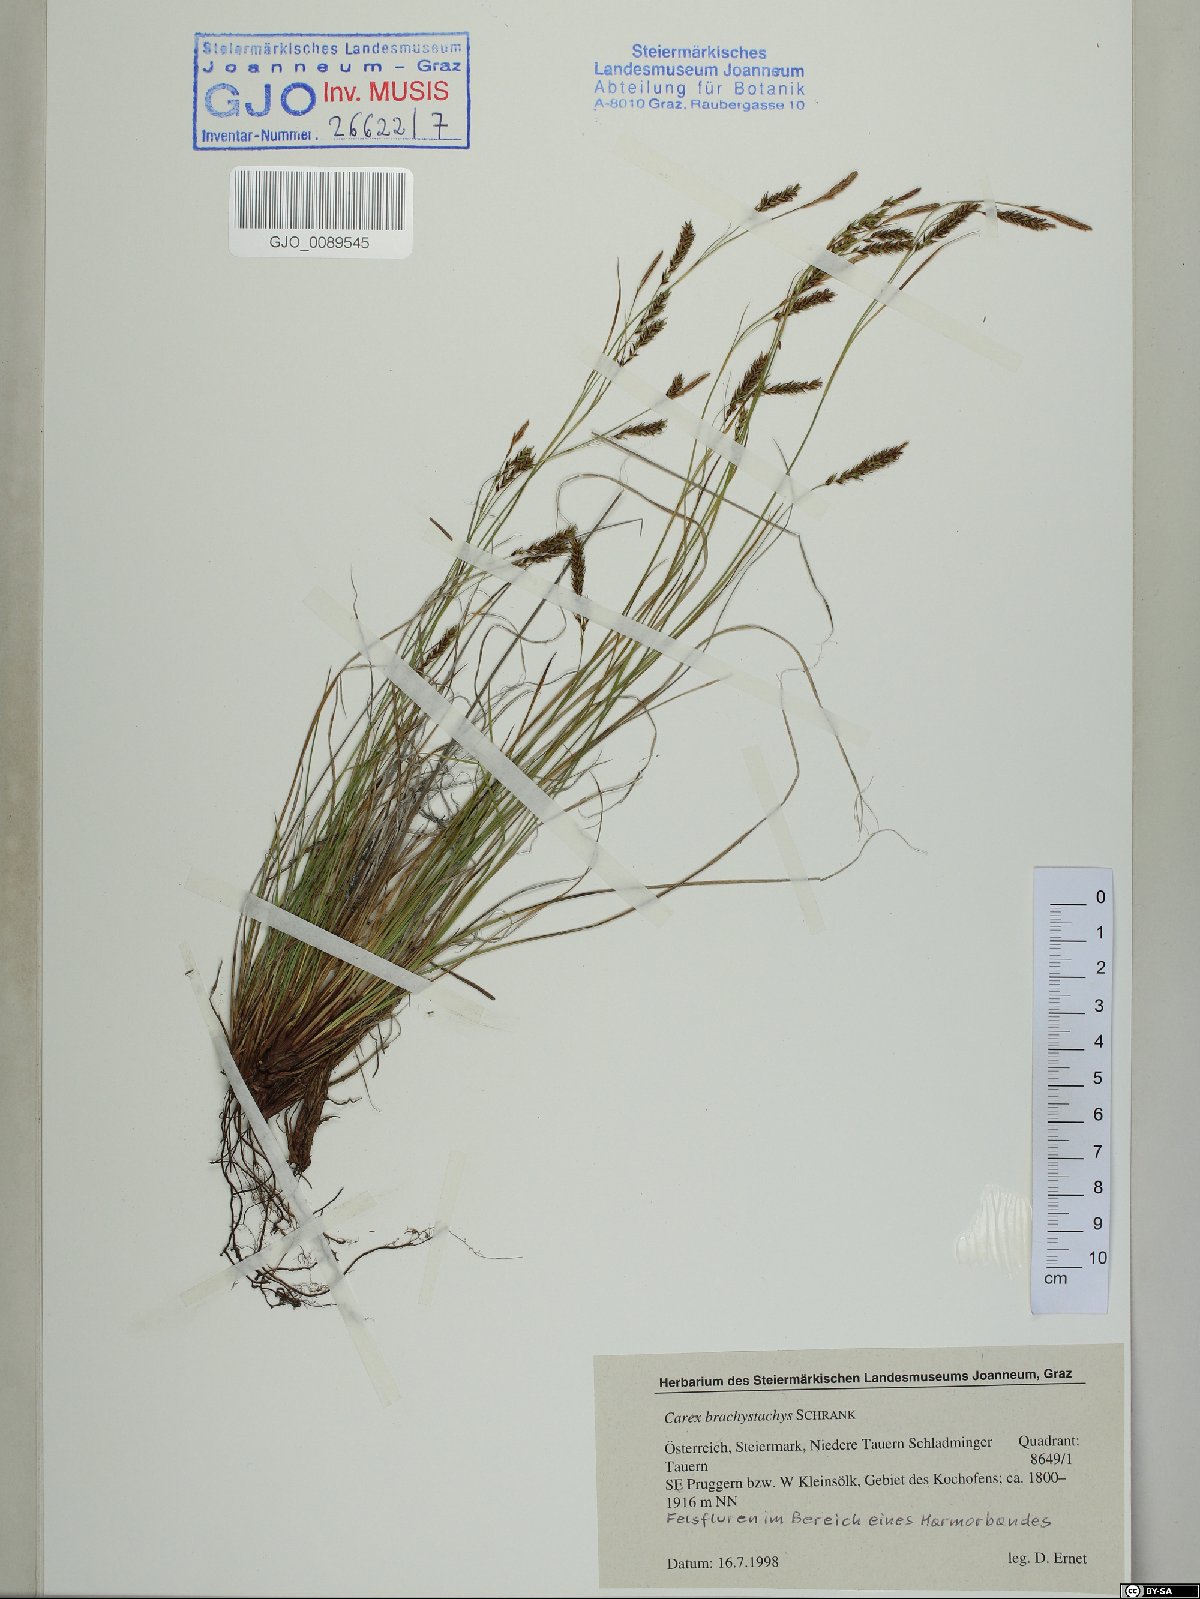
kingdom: Plantae
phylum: Tracheophyta
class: Liliopsida
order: Poales
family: Cyperaceae
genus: Carex
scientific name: Carex brachystachys
